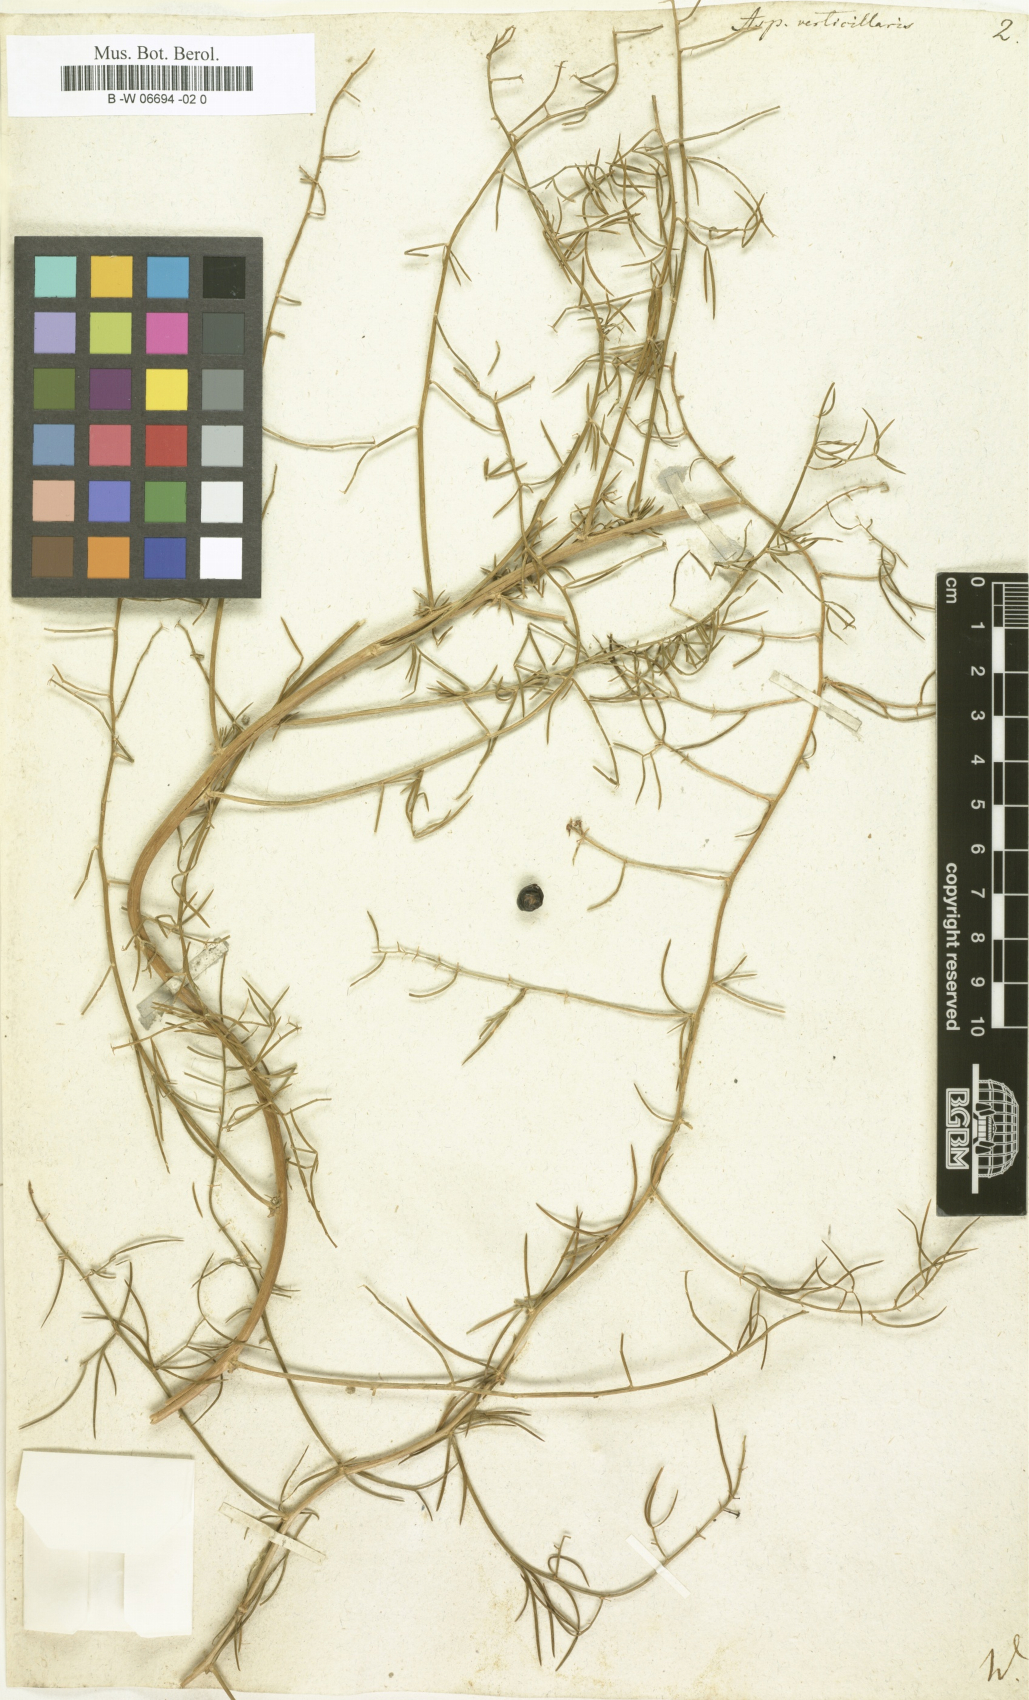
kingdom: Plantae
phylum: Tracheophyta
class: Liliopsida
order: Asparagales
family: Asparagaceae
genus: Asparagus
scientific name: Asparagus verticillatus
